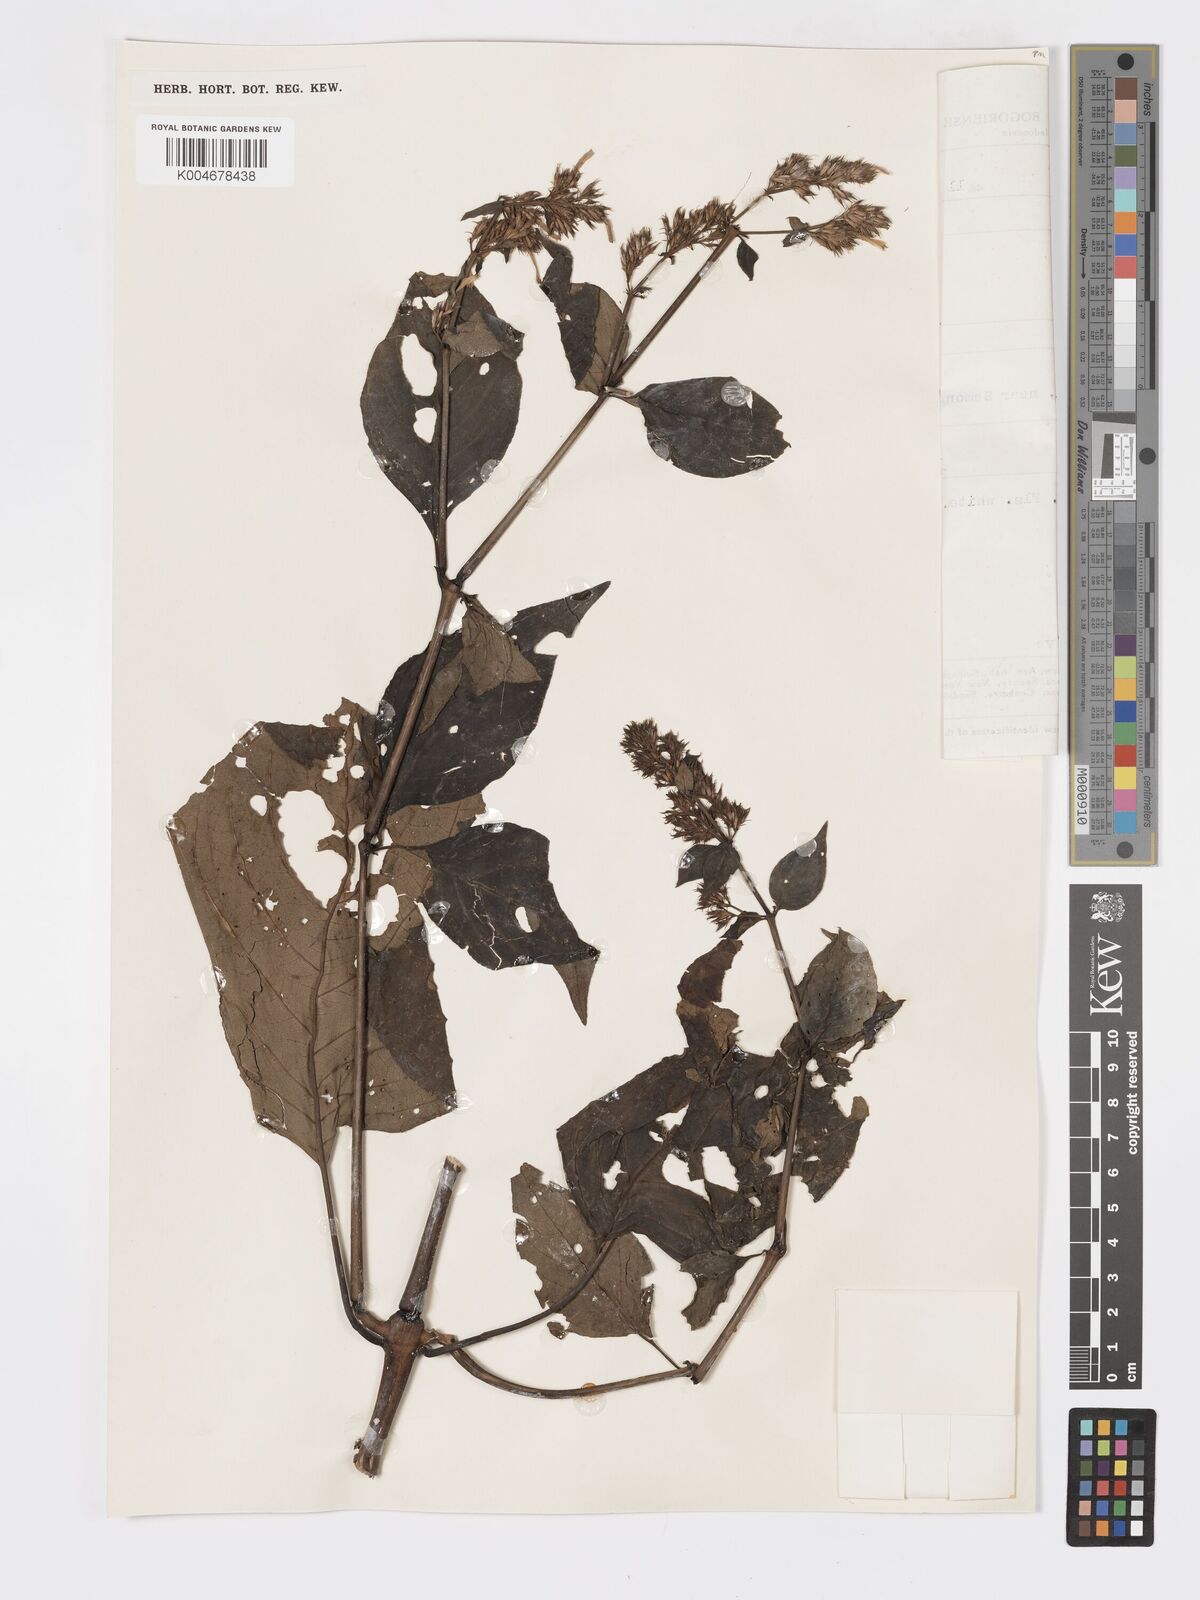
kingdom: Plantae
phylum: Tracheophyta
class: Magnoliopsida
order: Lamiales
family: Acanthaceae
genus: Hypoestes
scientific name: Hypoestes
